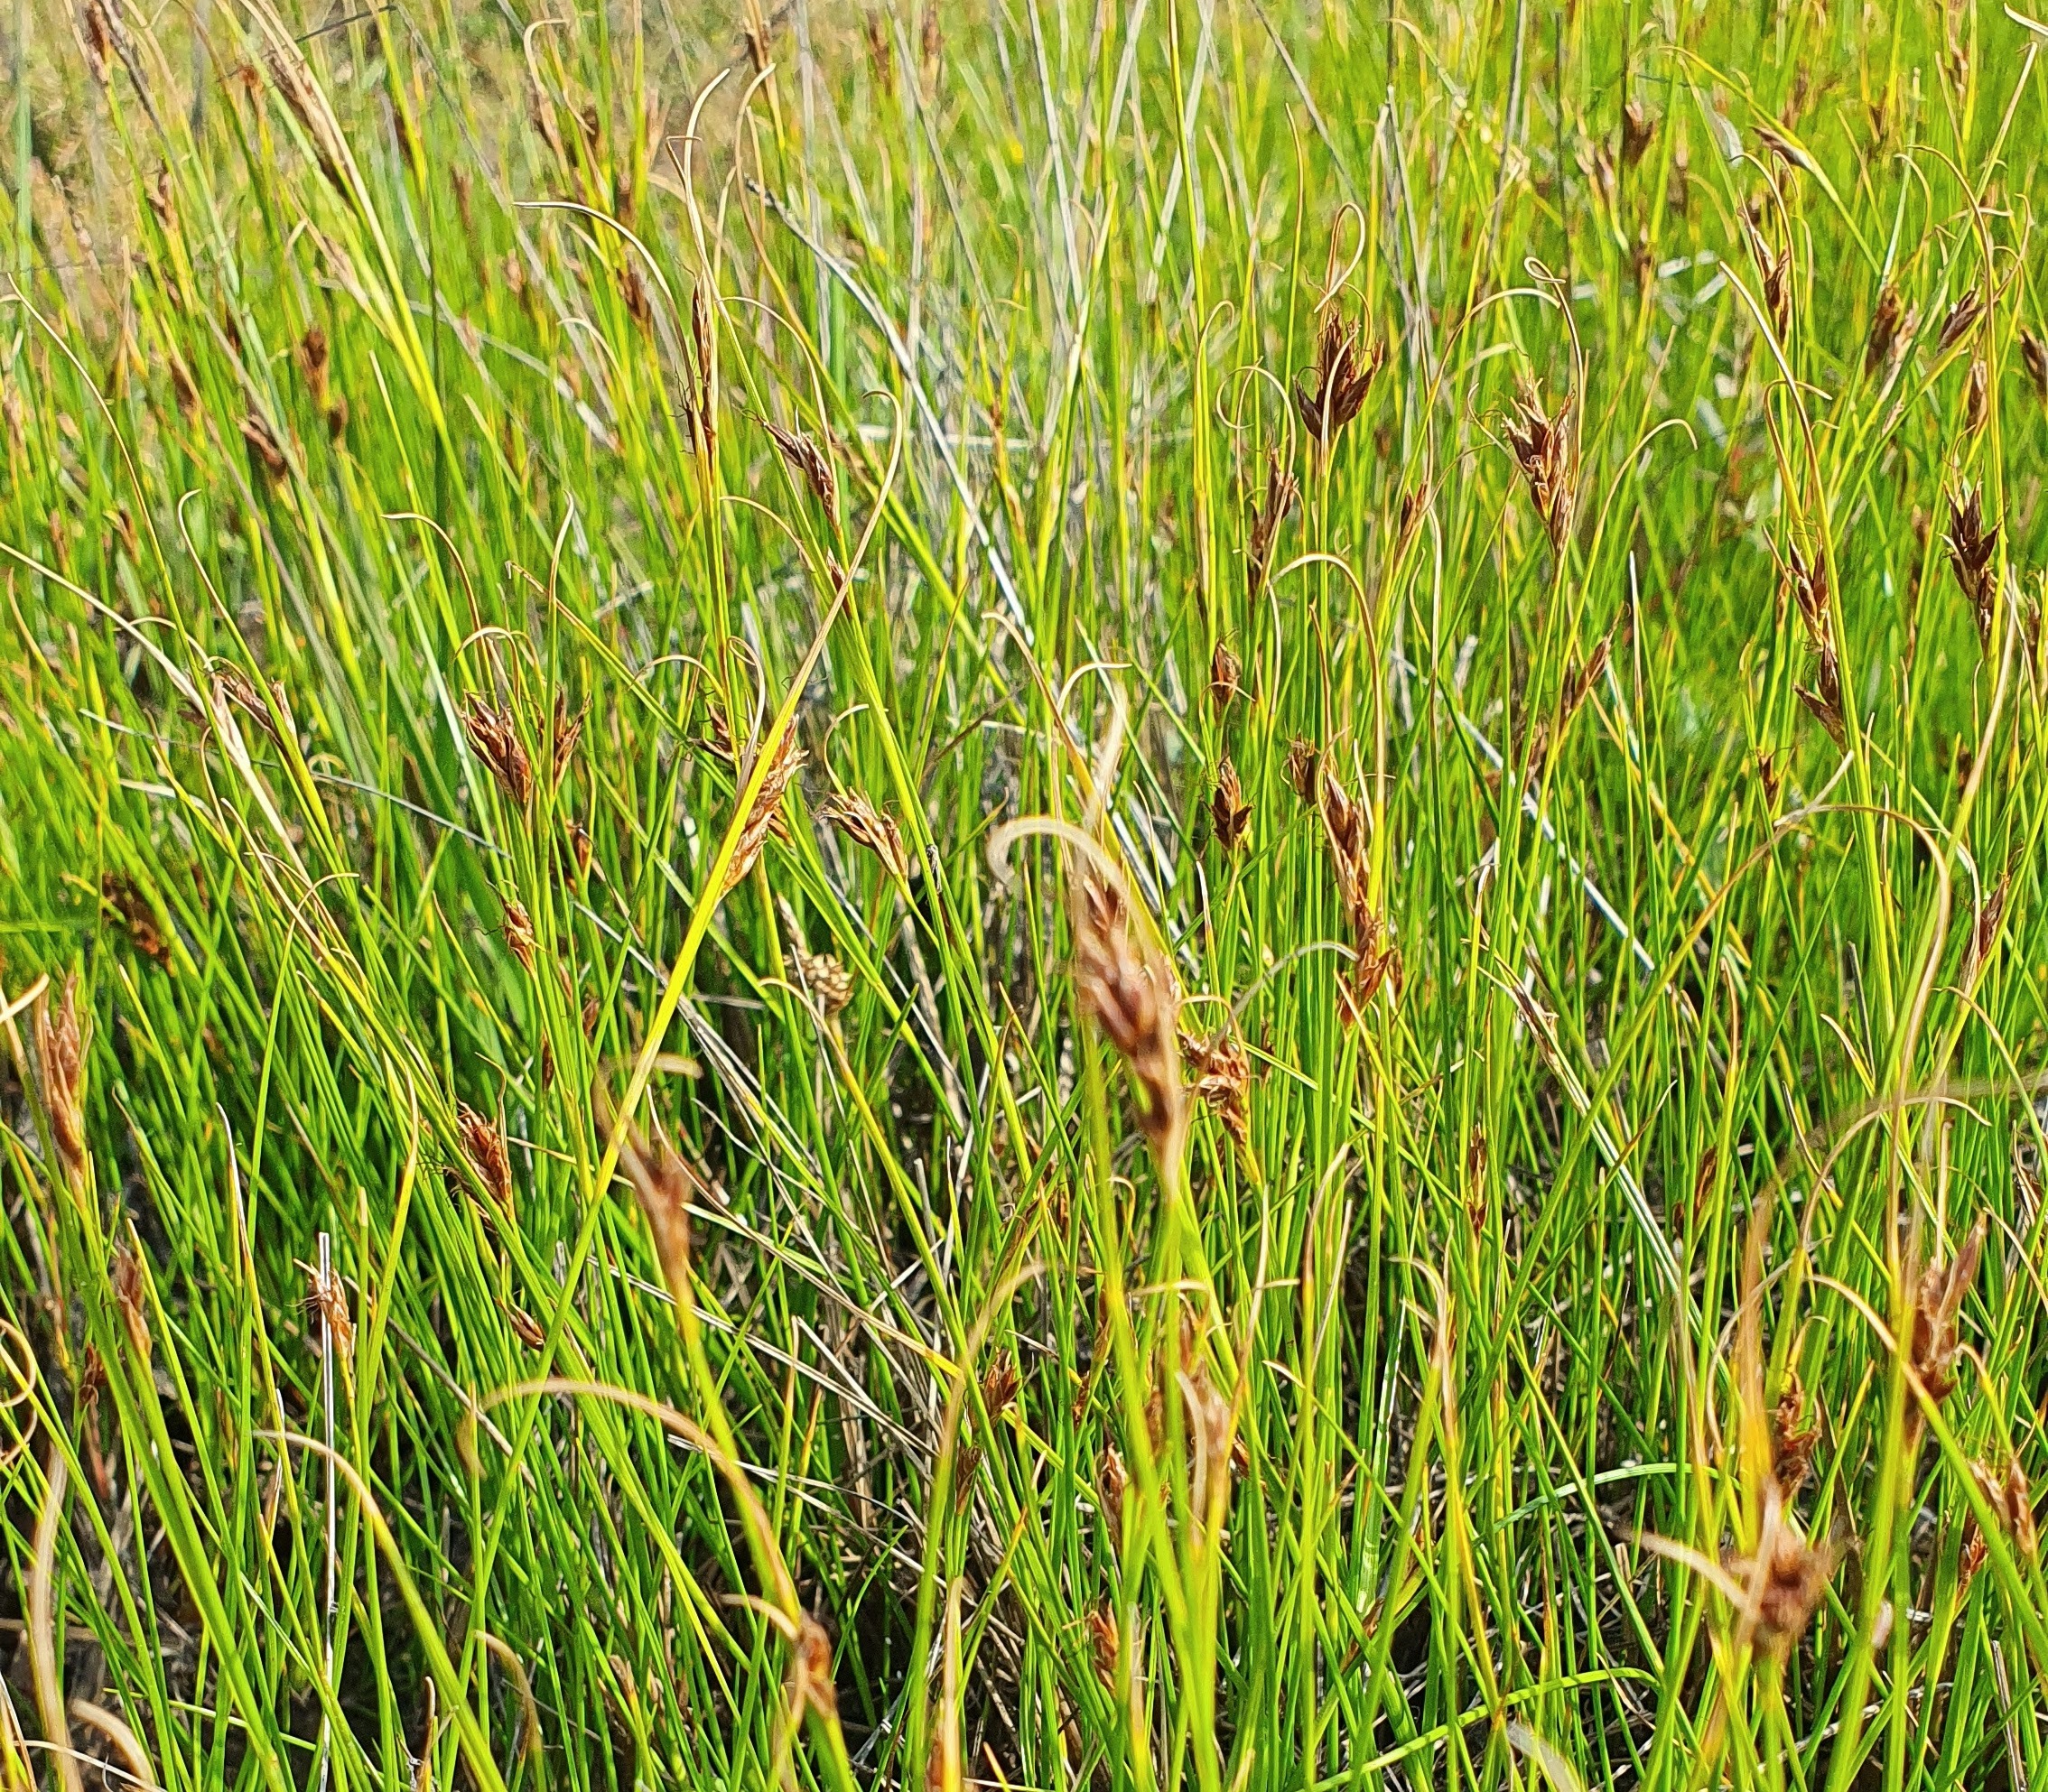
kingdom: Plantae
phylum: Tracheophyta
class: Liliopsida
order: Poales
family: Cyperaceae
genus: Rhynchospora
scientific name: Rhynchospora fusca
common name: Brun næbfrø
